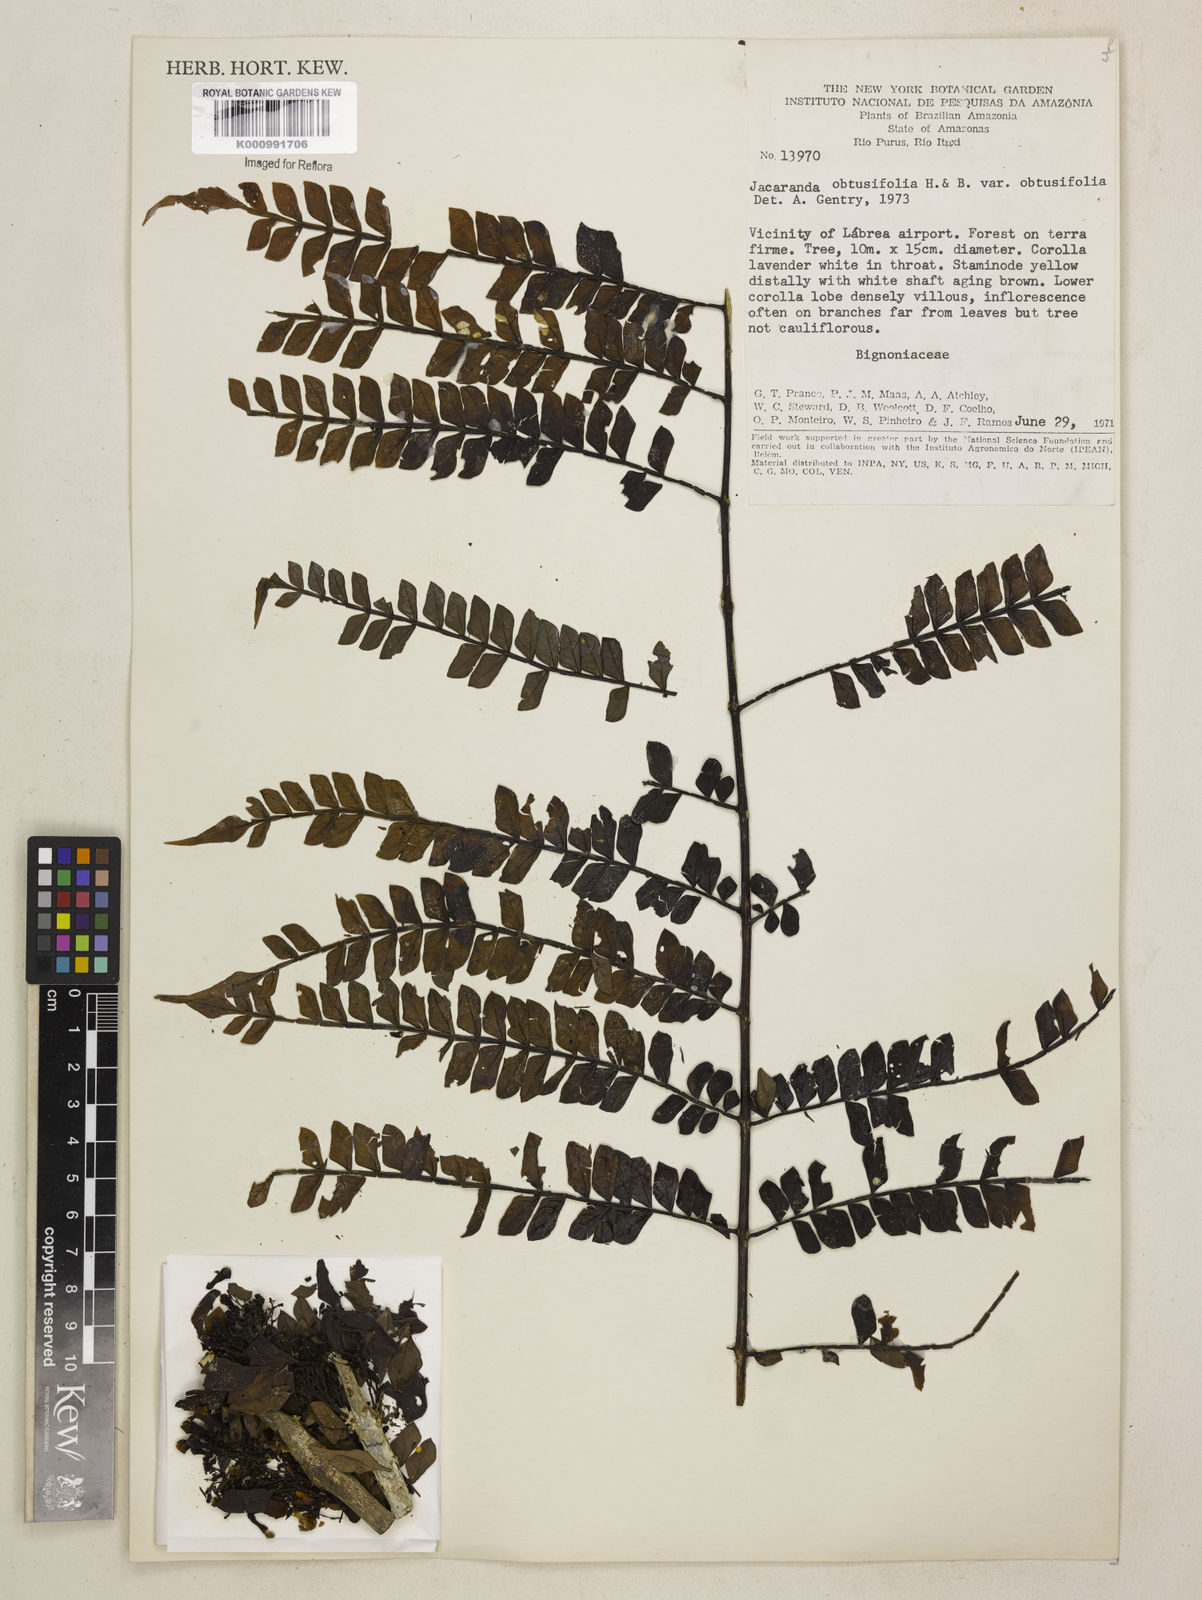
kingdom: Plantae
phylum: Tracheophyta
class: Magnoliopsida
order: Lamiales
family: Bignoniaceae
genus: Jacaranda
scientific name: Jacaranda obtusifolia
